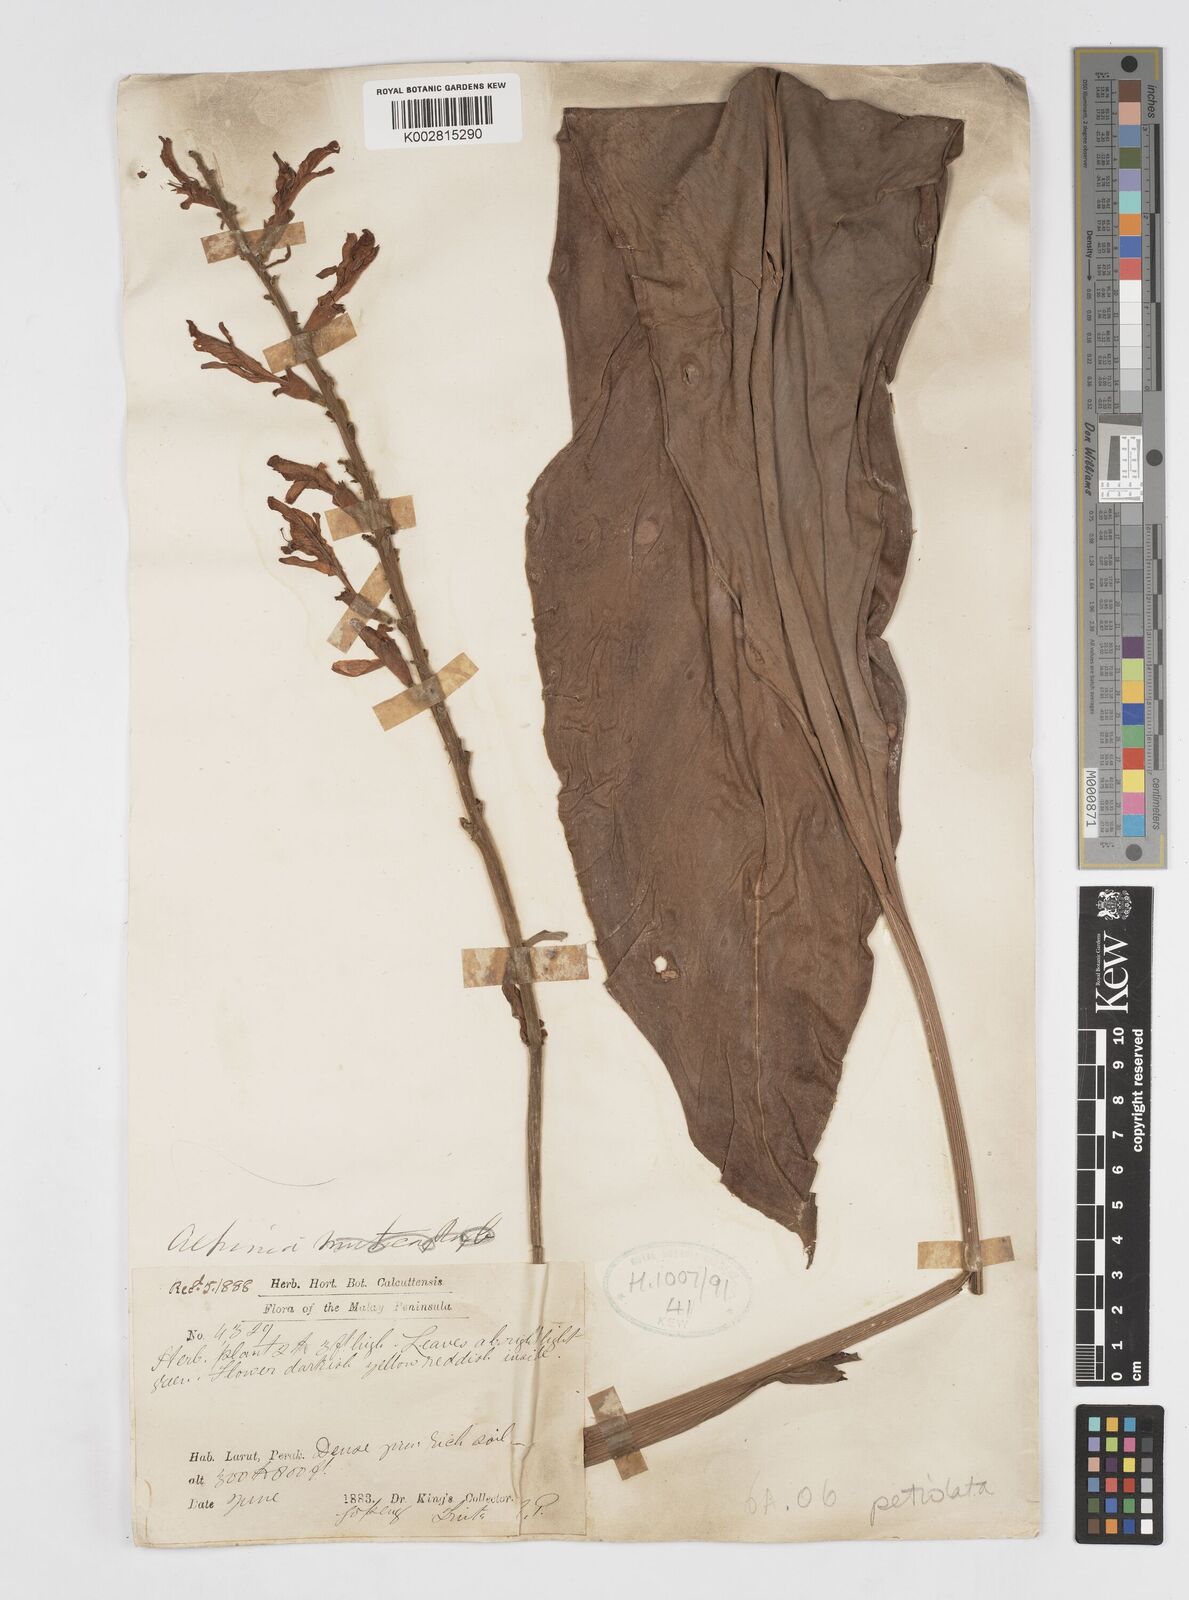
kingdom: Plantae
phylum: Tracheophyta
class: Liliopsida
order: Zingiberales
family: Zingiberaceae
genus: Alpinia
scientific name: Alpinia petiolata
